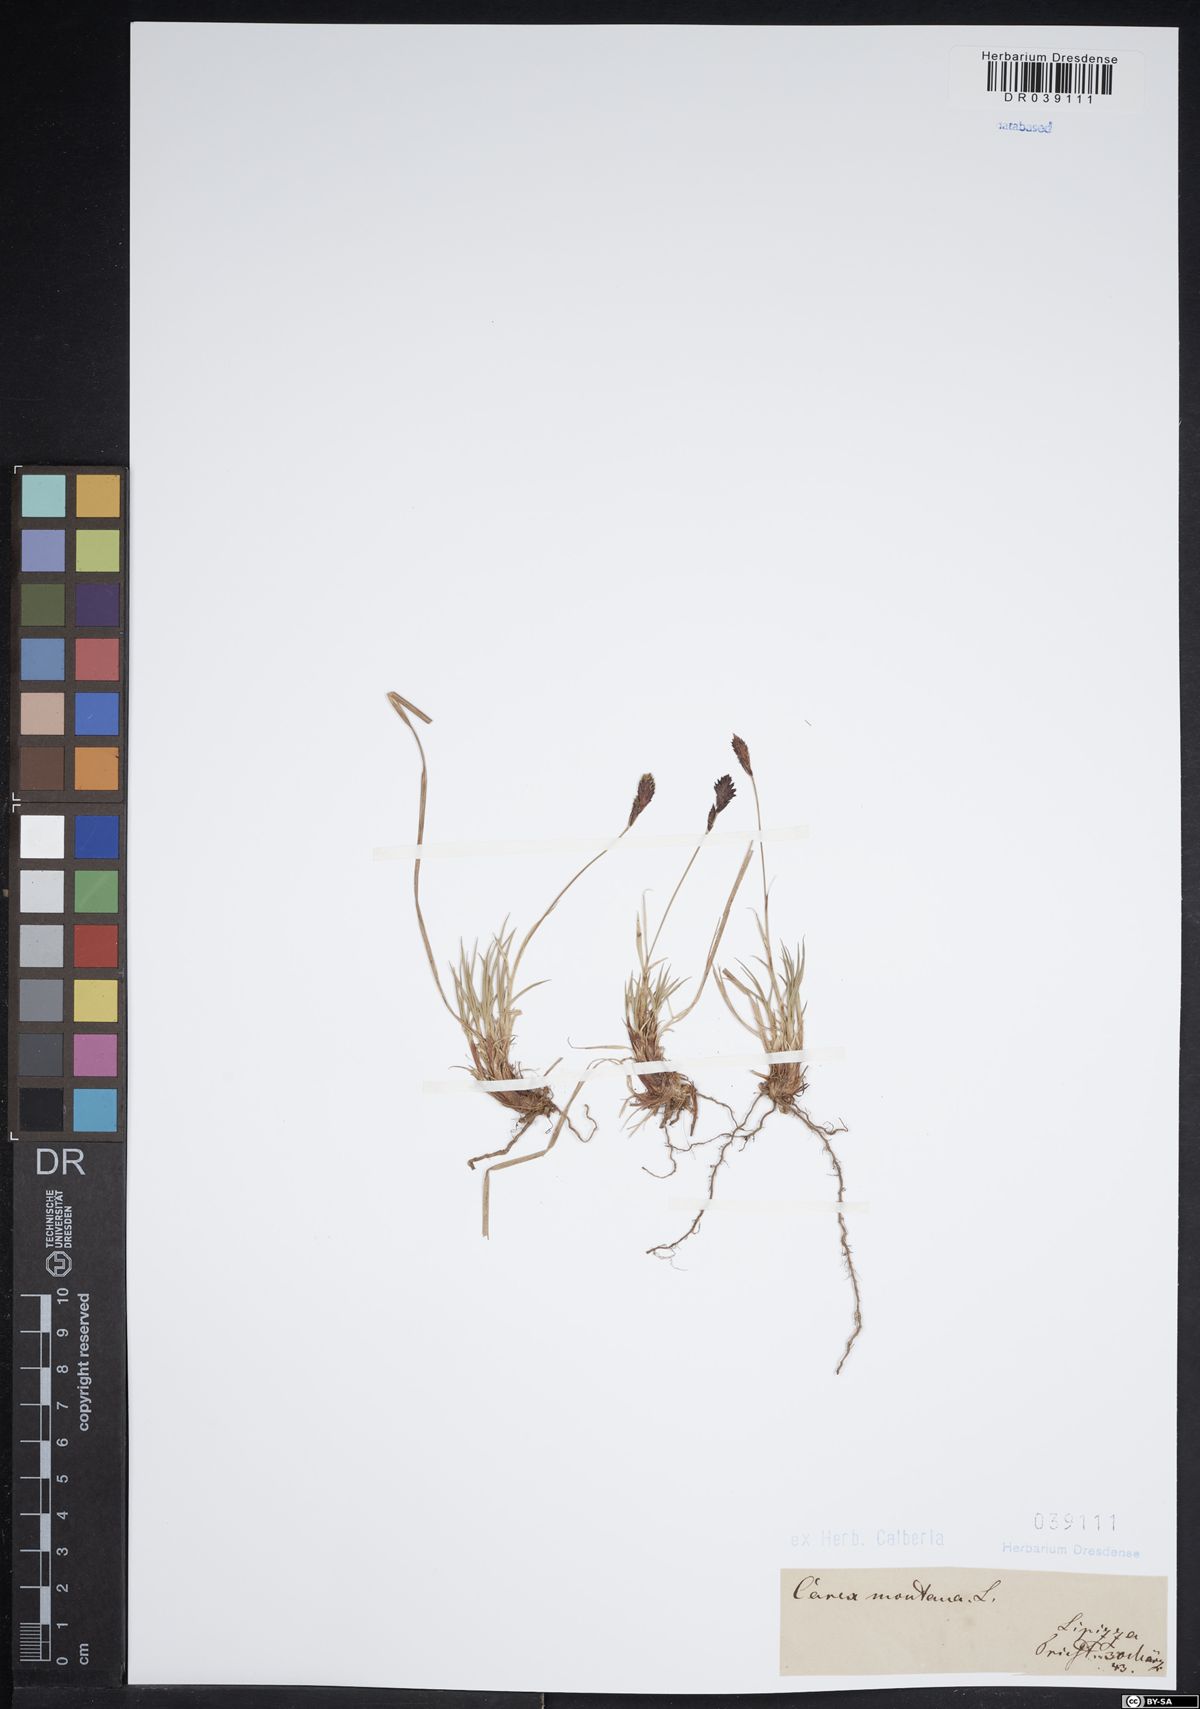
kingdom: Plantae
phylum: Tracheophyta
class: Liliopsida
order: Poales
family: Cyperaceae
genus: Carex
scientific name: Carex montana
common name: Soft-leaved sedge
